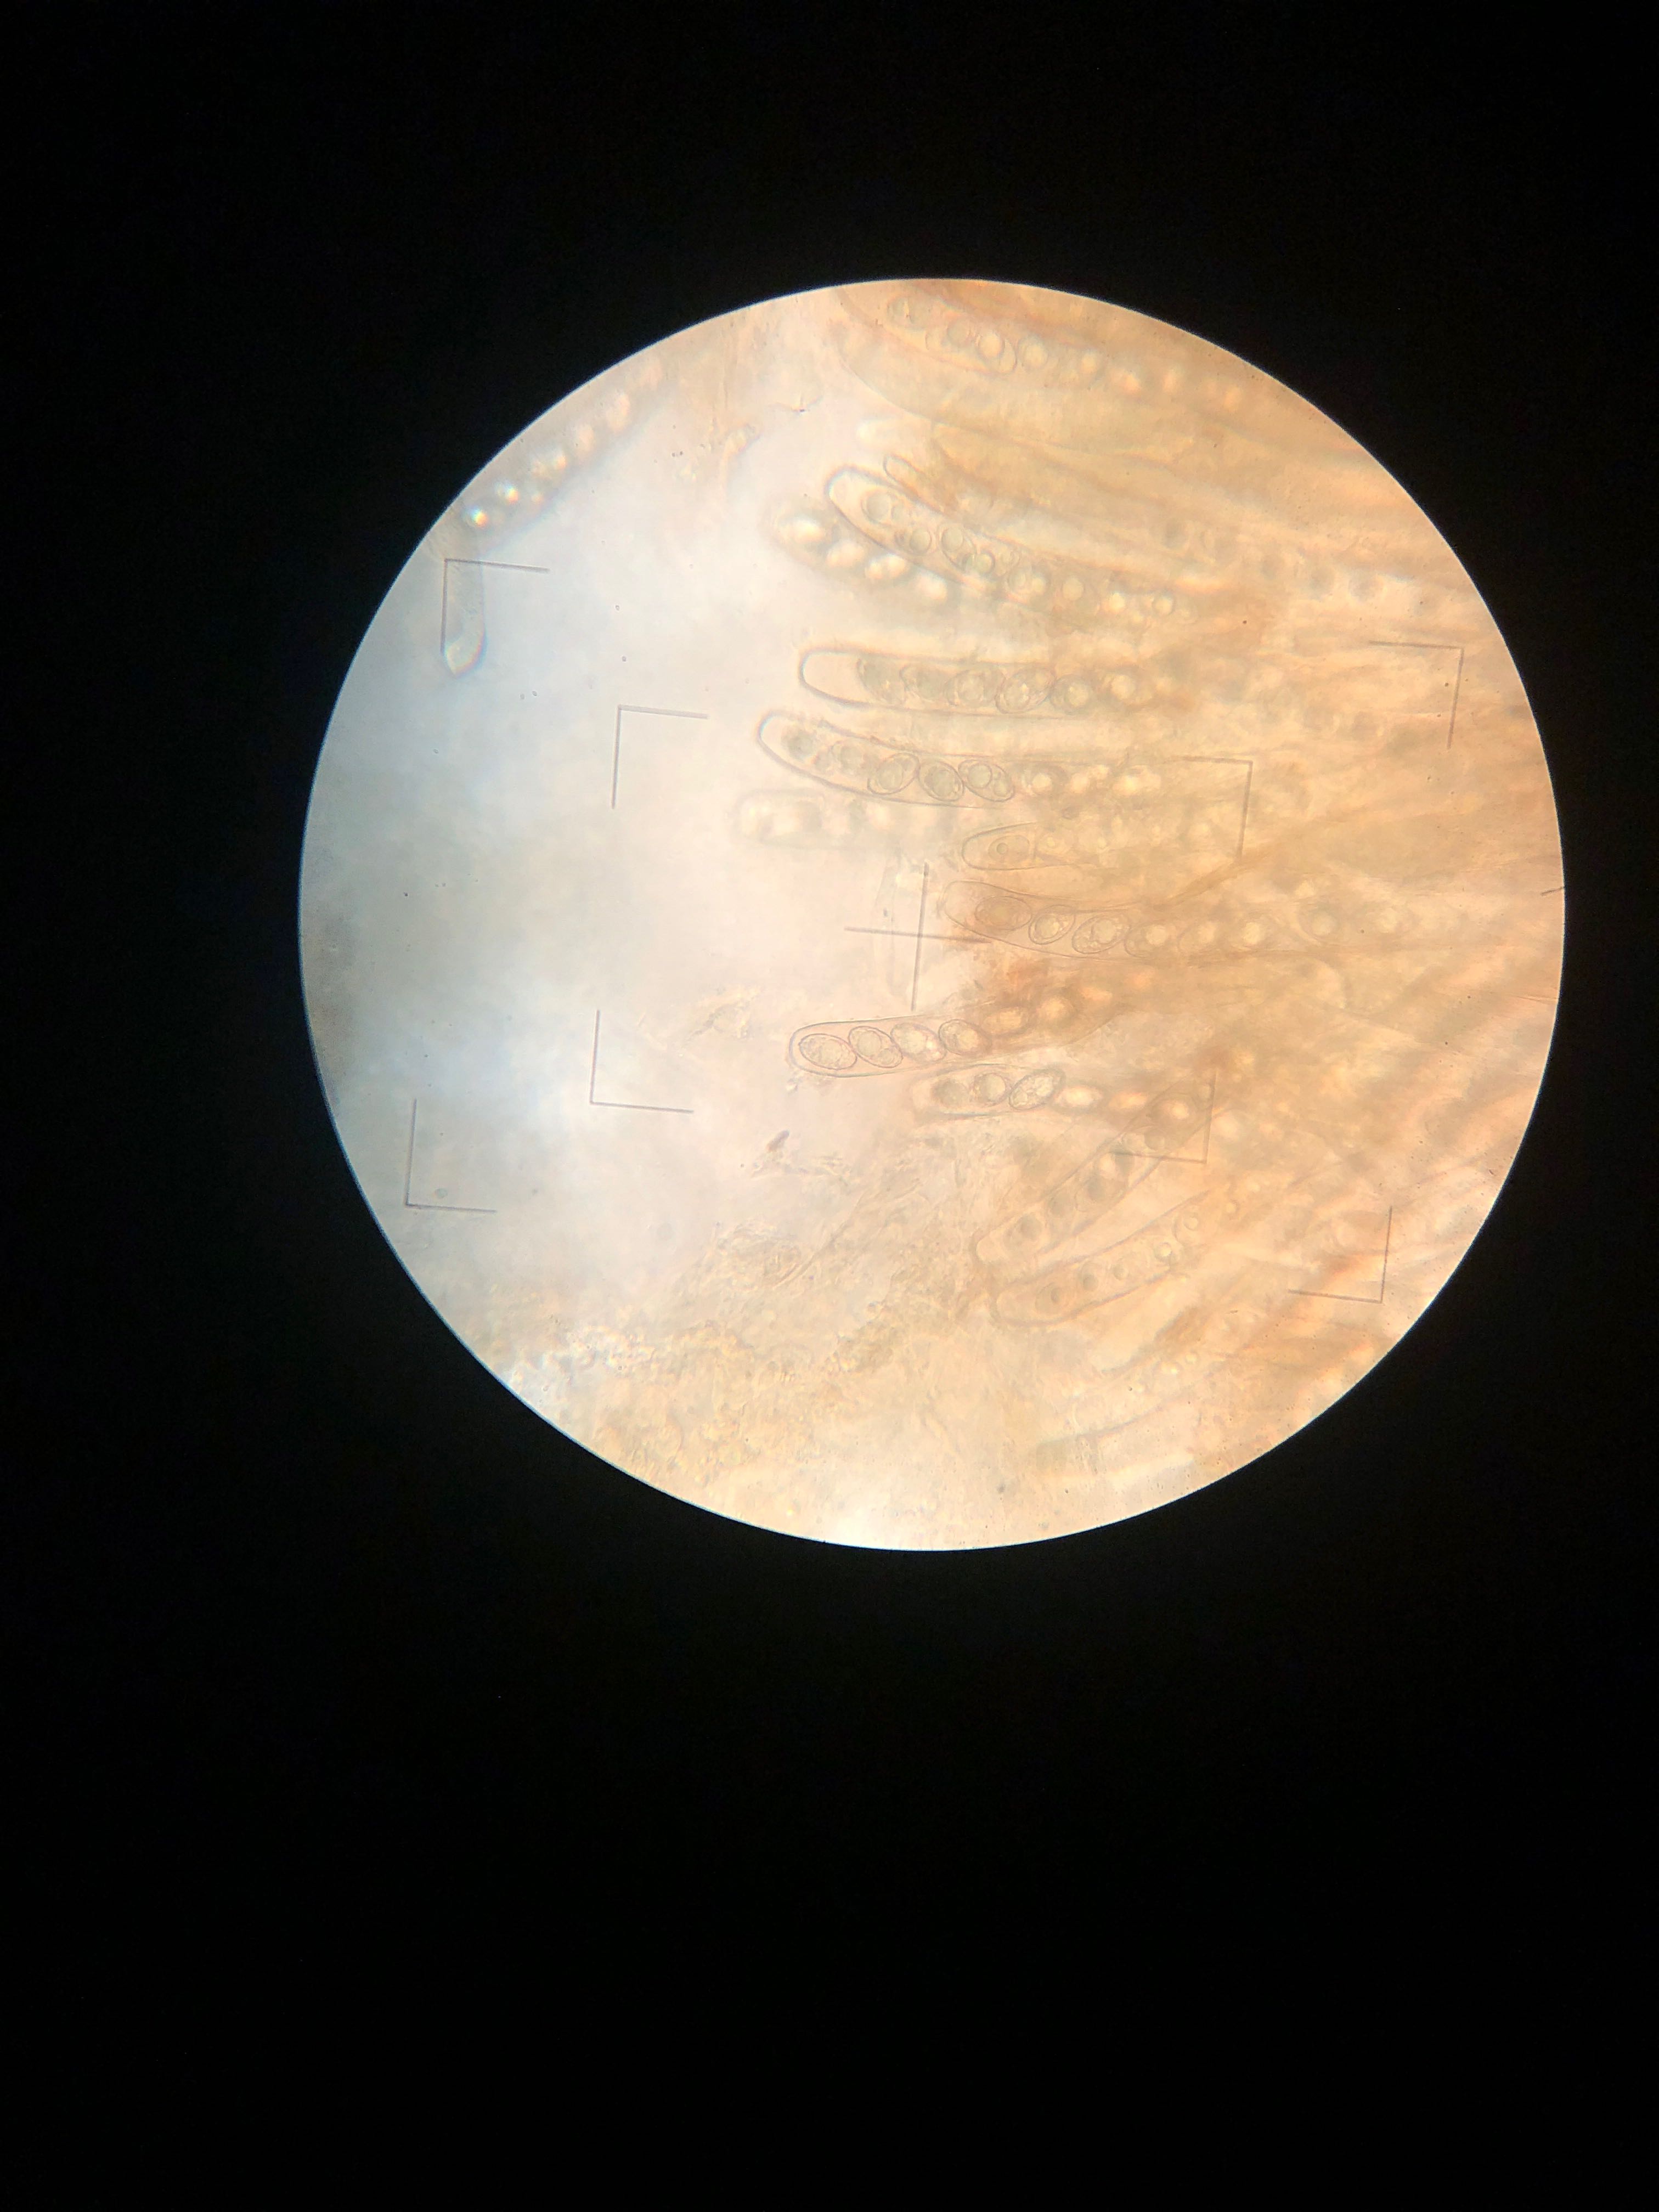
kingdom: Fungi
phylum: Ascomycota
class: Pezizomycetes
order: Pezizales
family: Pezizaceae
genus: Legaliana
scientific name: Legaliana
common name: bægersvamp
